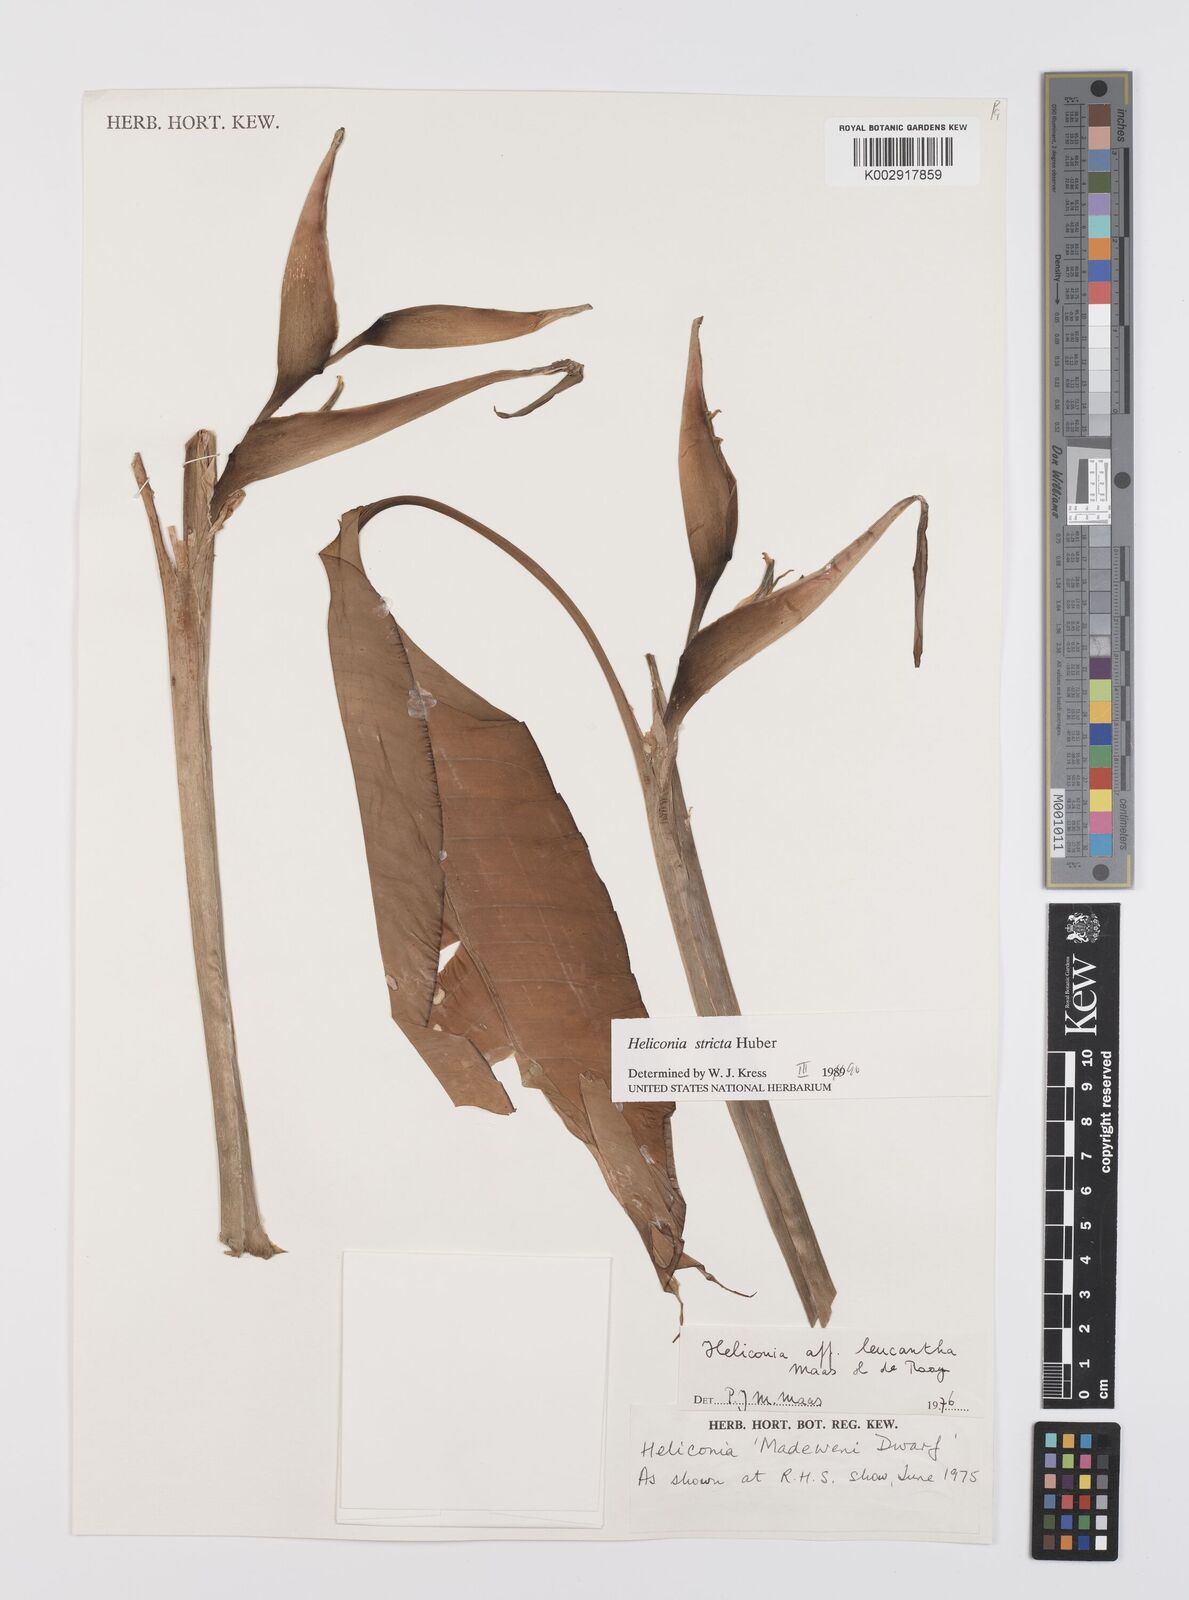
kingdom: Plantae
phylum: Tracheophyta
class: Liliopsida
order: Zingiberales
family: Heliconiaceae
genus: Heliconia
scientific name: Heliconia
